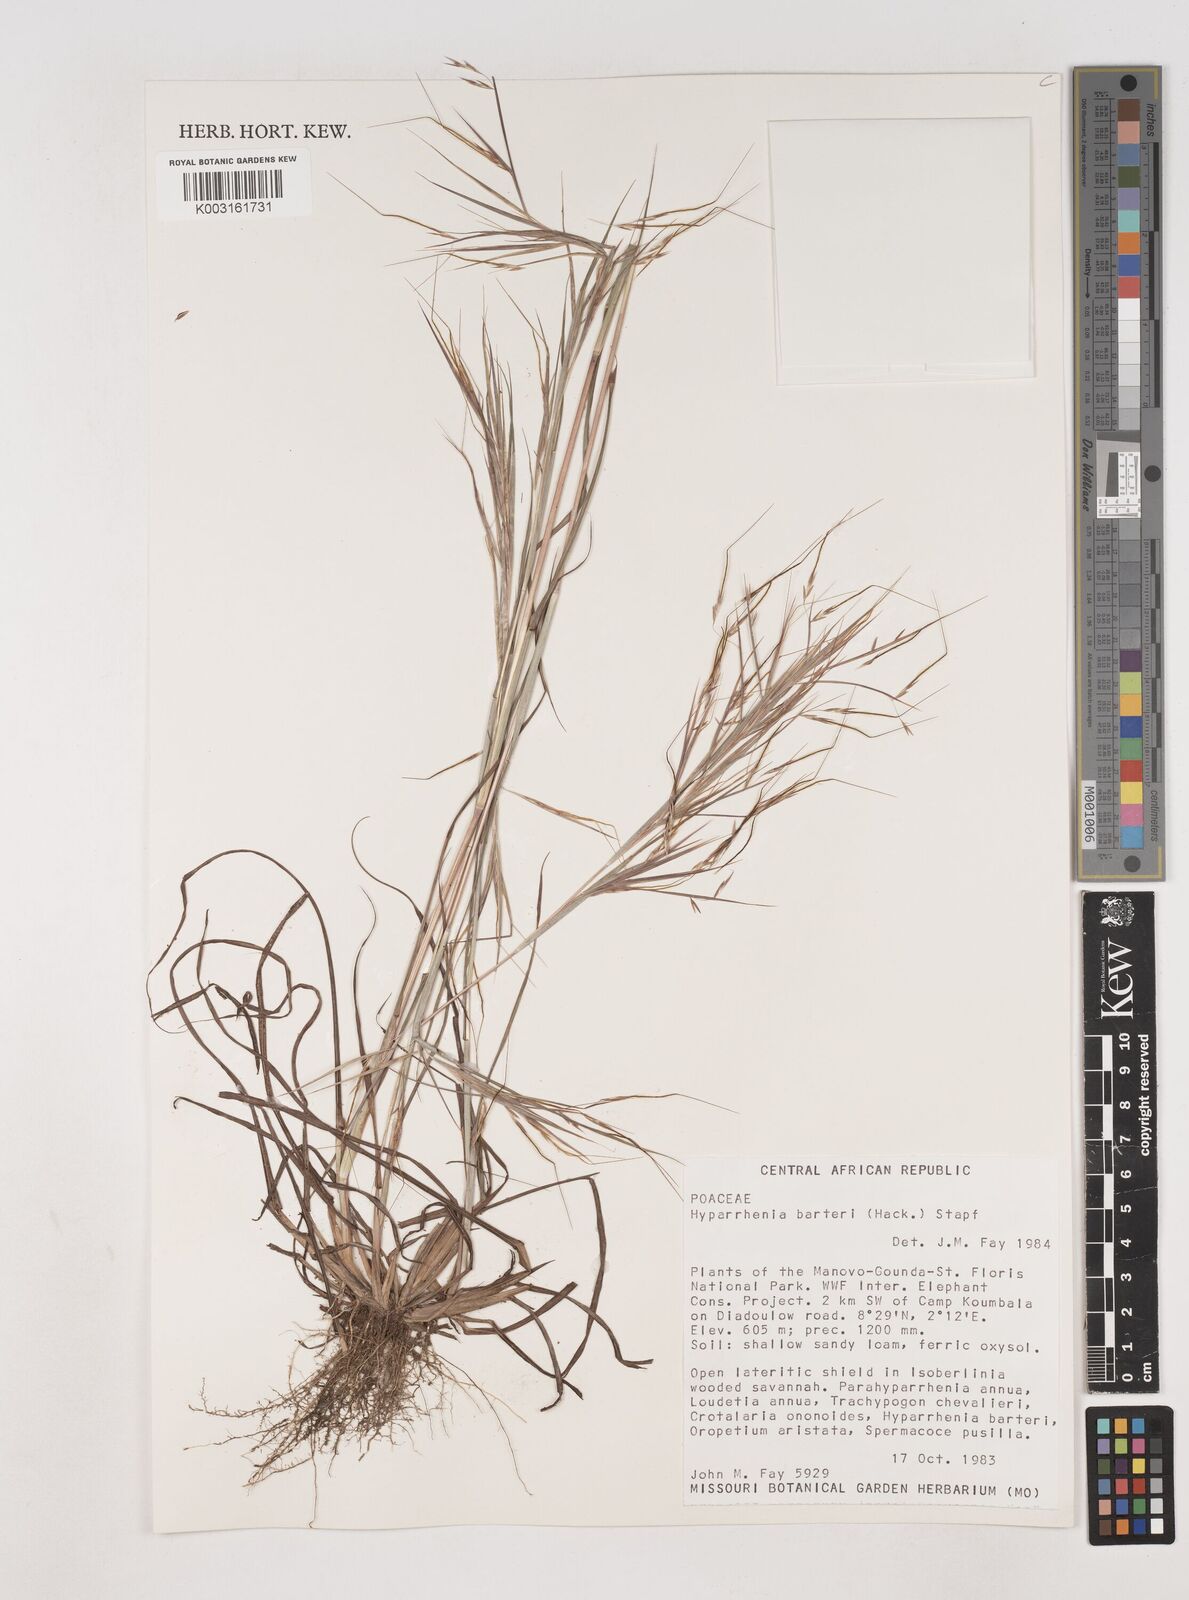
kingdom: Plantae
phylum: Tracheophyta
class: Liliopsida
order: Poales
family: Poaceae
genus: Hyparrhenia
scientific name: Hyparrhenia barteri
